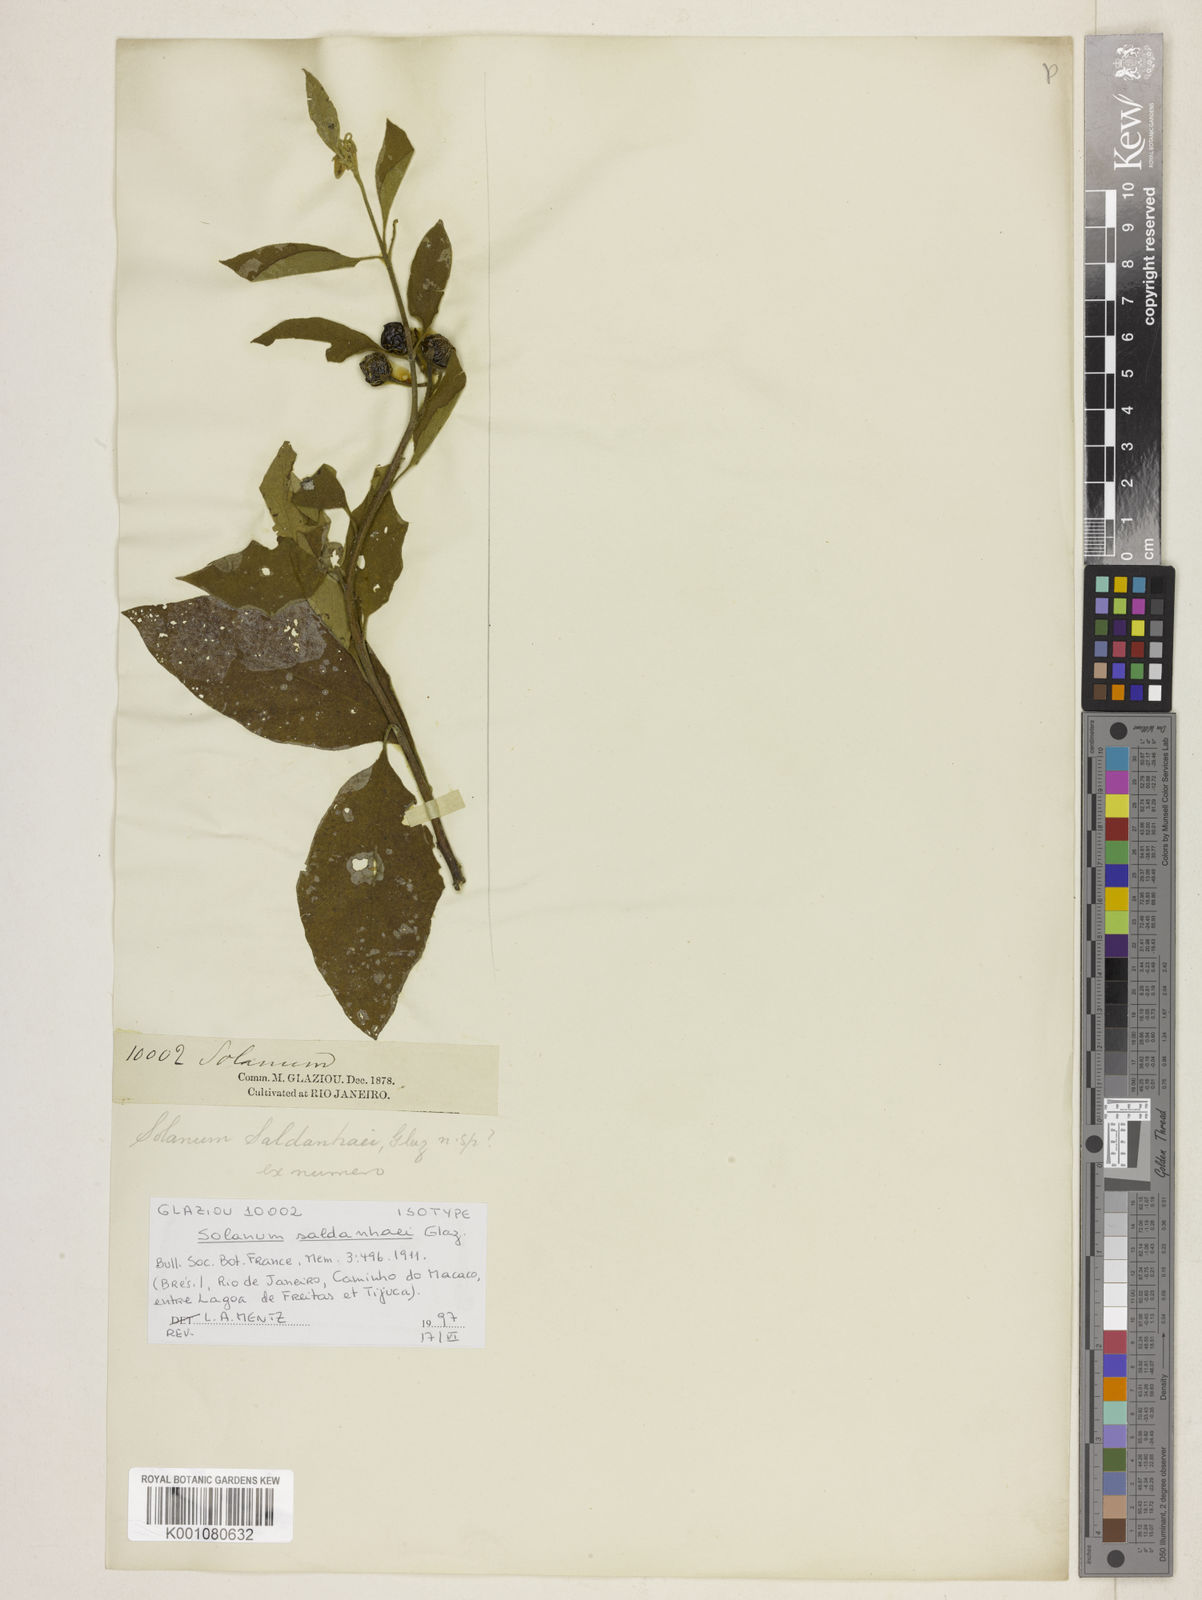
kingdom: Plantae
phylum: Tracheophyta
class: Magnoliopsida
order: Solanales
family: Solanaceae
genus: Solanum
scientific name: Solanum saldanhaei
